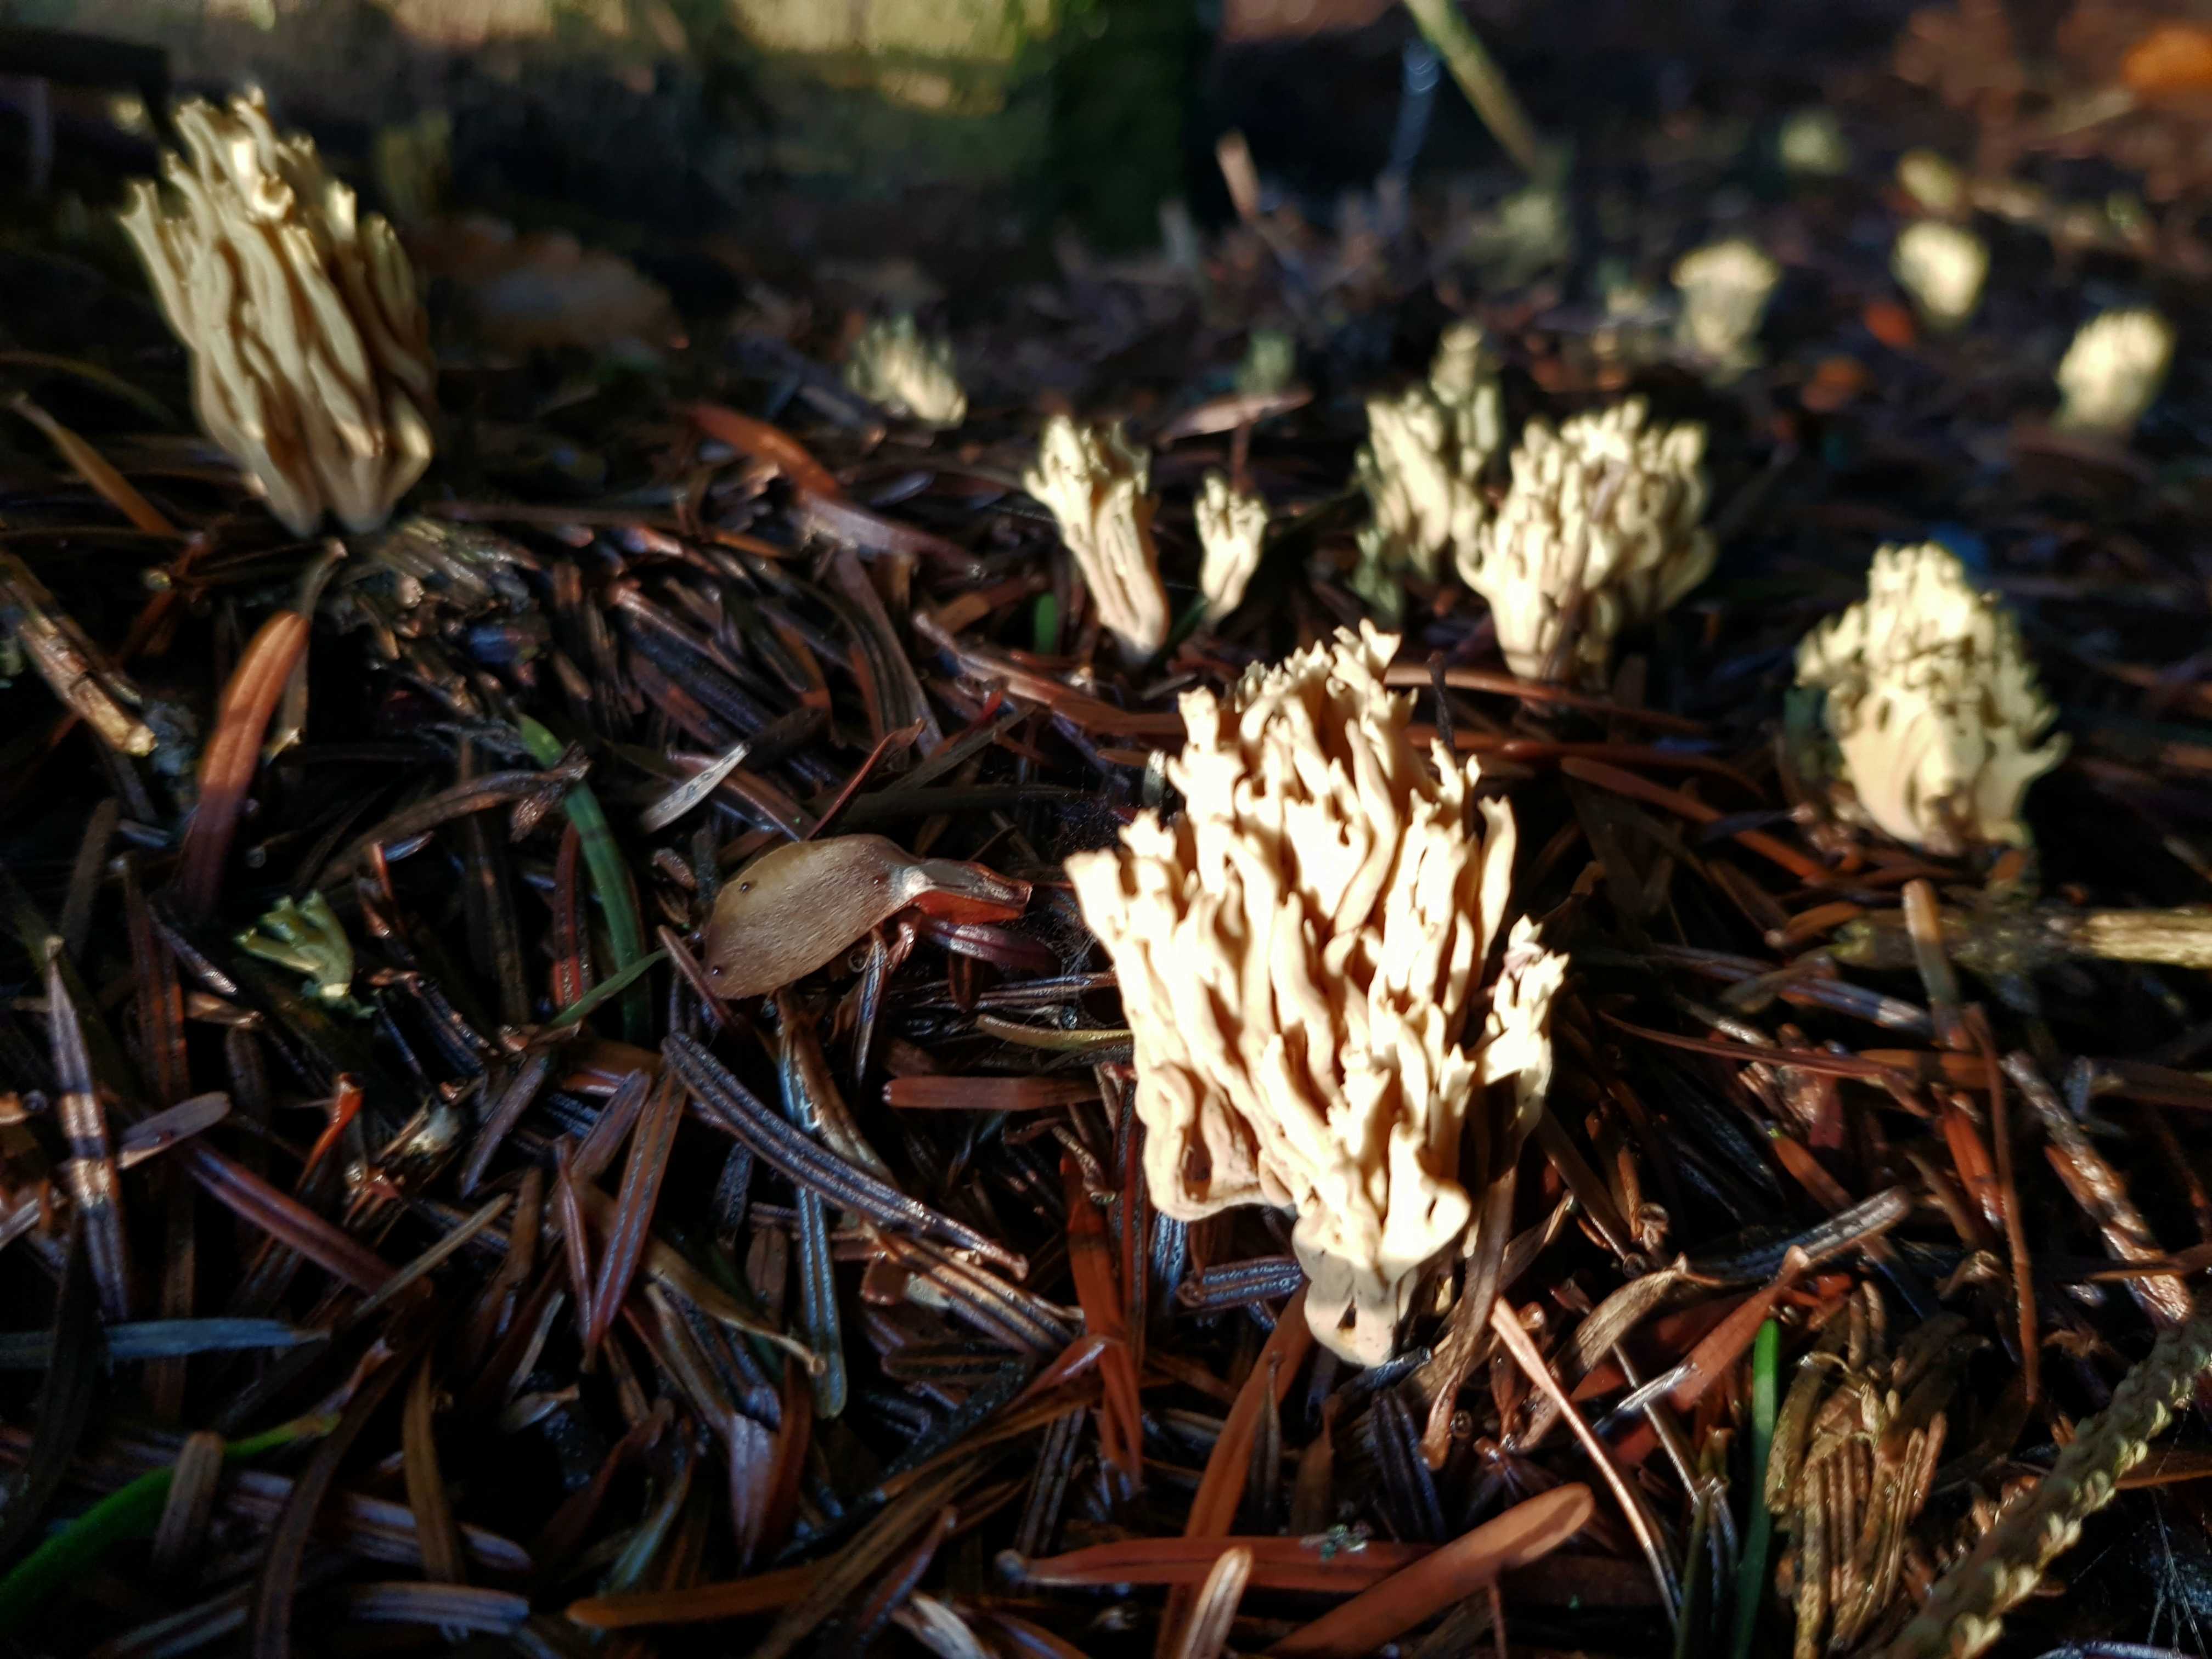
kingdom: Fungi
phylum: Basidiomycota
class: Agaricomycetes
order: Gomphales
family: Gomphaceae
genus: Phaeoclavulina
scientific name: Phaeoclavulina eumorpha
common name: gran-koralsvamp
